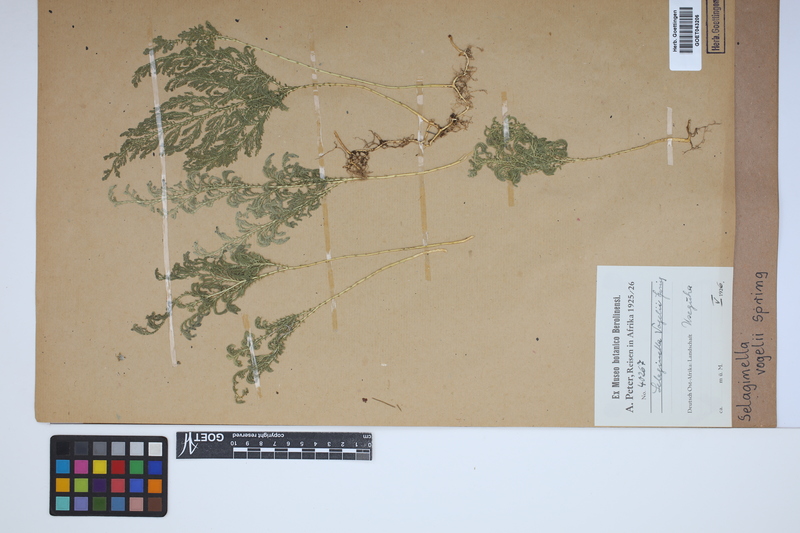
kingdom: Plantae
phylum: Tracheophyta
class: Lycopodiopsida
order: Selaginellales
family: Selaginellaceae
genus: Selaginella
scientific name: Selaginella vogelii
